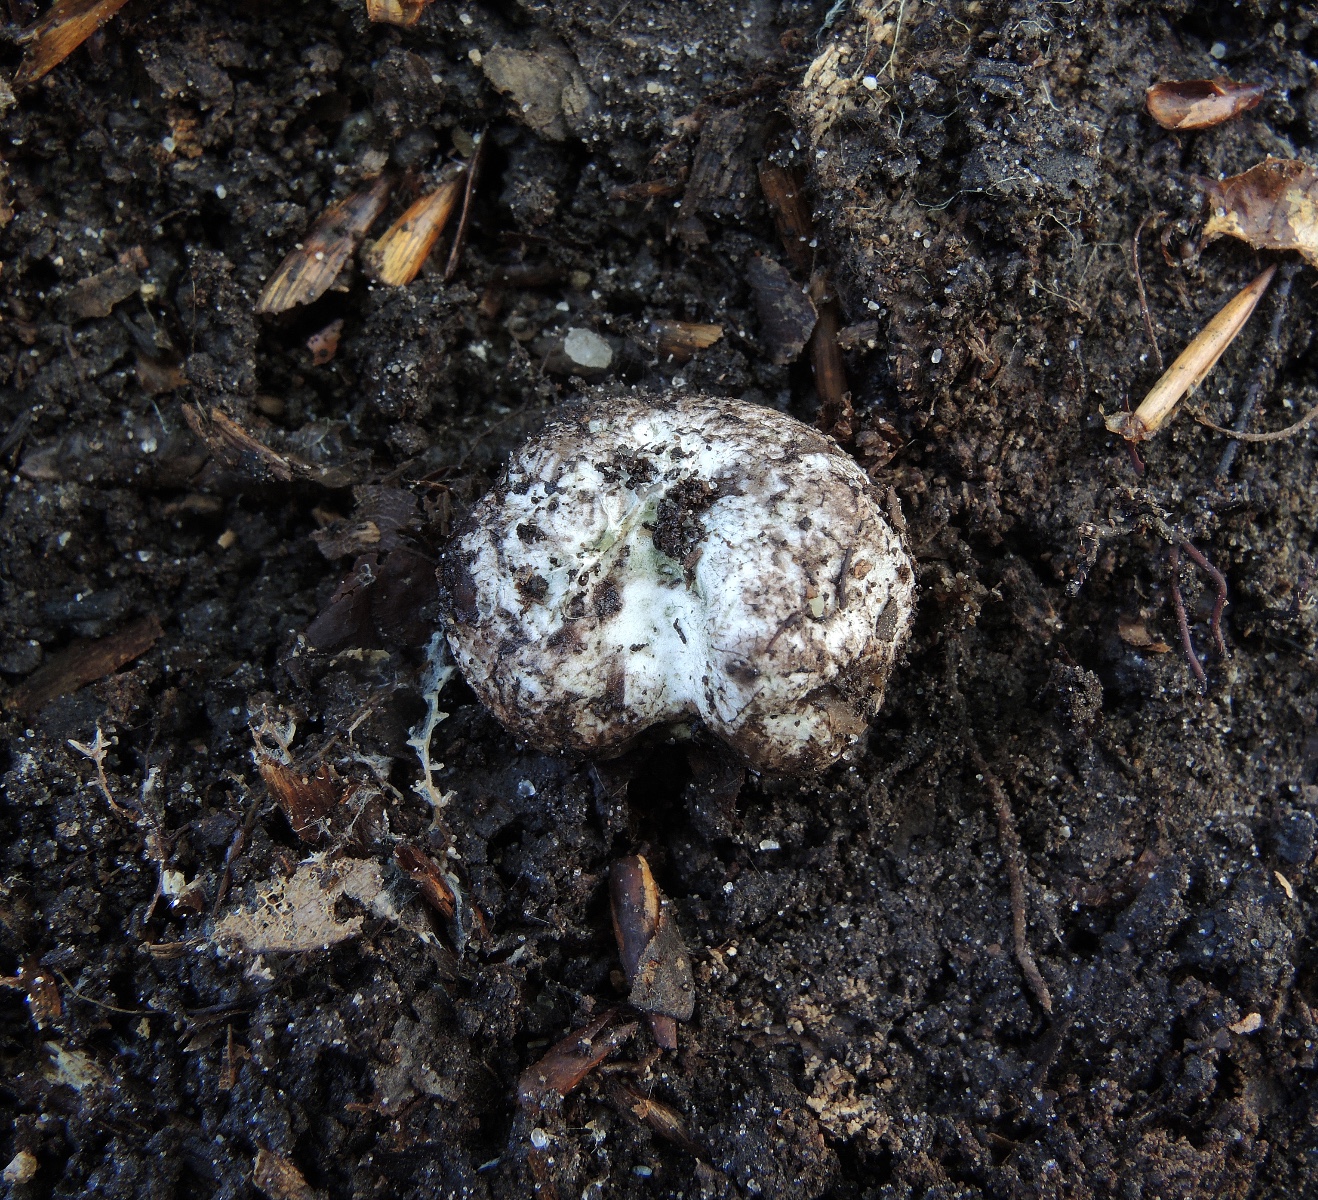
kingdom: Fungi
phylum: Basidiomycota
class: Agaricomycetes
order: Boletales
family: Boletaceae
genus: Octaviania
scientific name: Octaviania
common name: løvtrøffel
